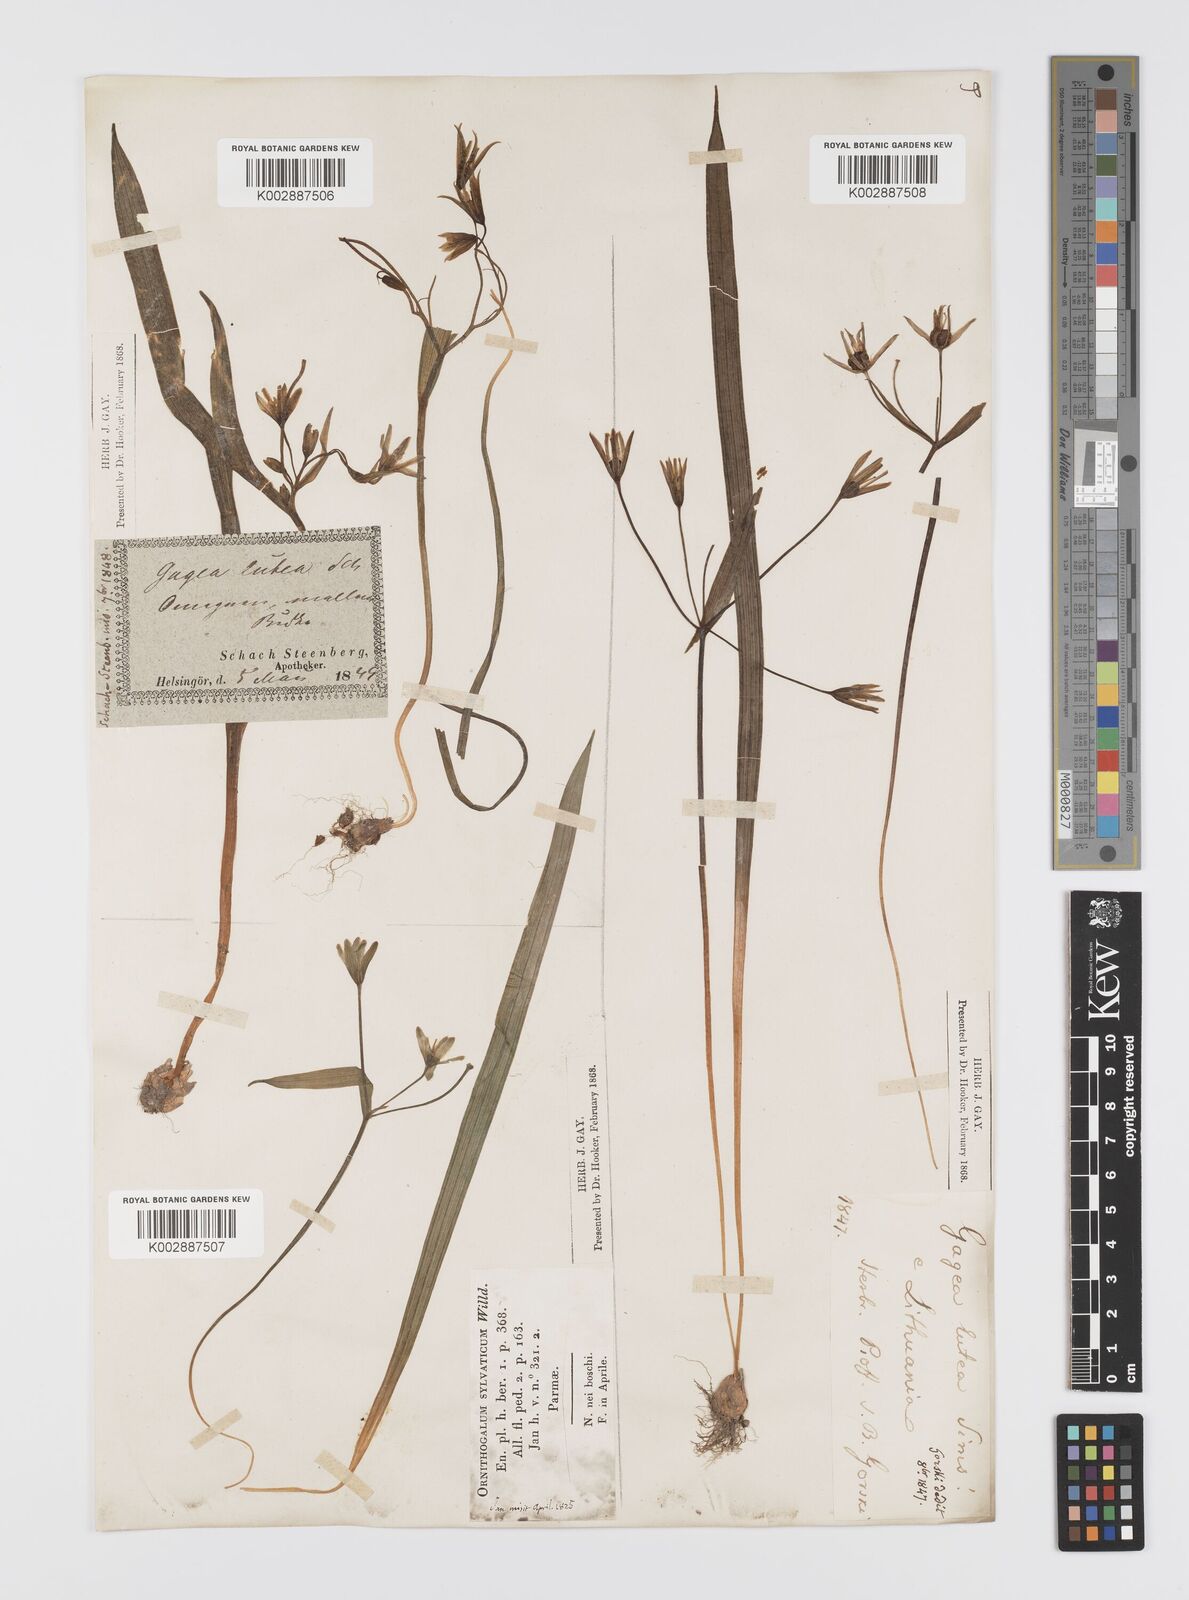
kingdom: Plantae
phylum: Tracheophyta
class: Liliopsida
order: Liliales
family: Liliaceae
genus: Gagea
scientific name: Gagea lutea
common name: Yellow star-of-bethlehem
